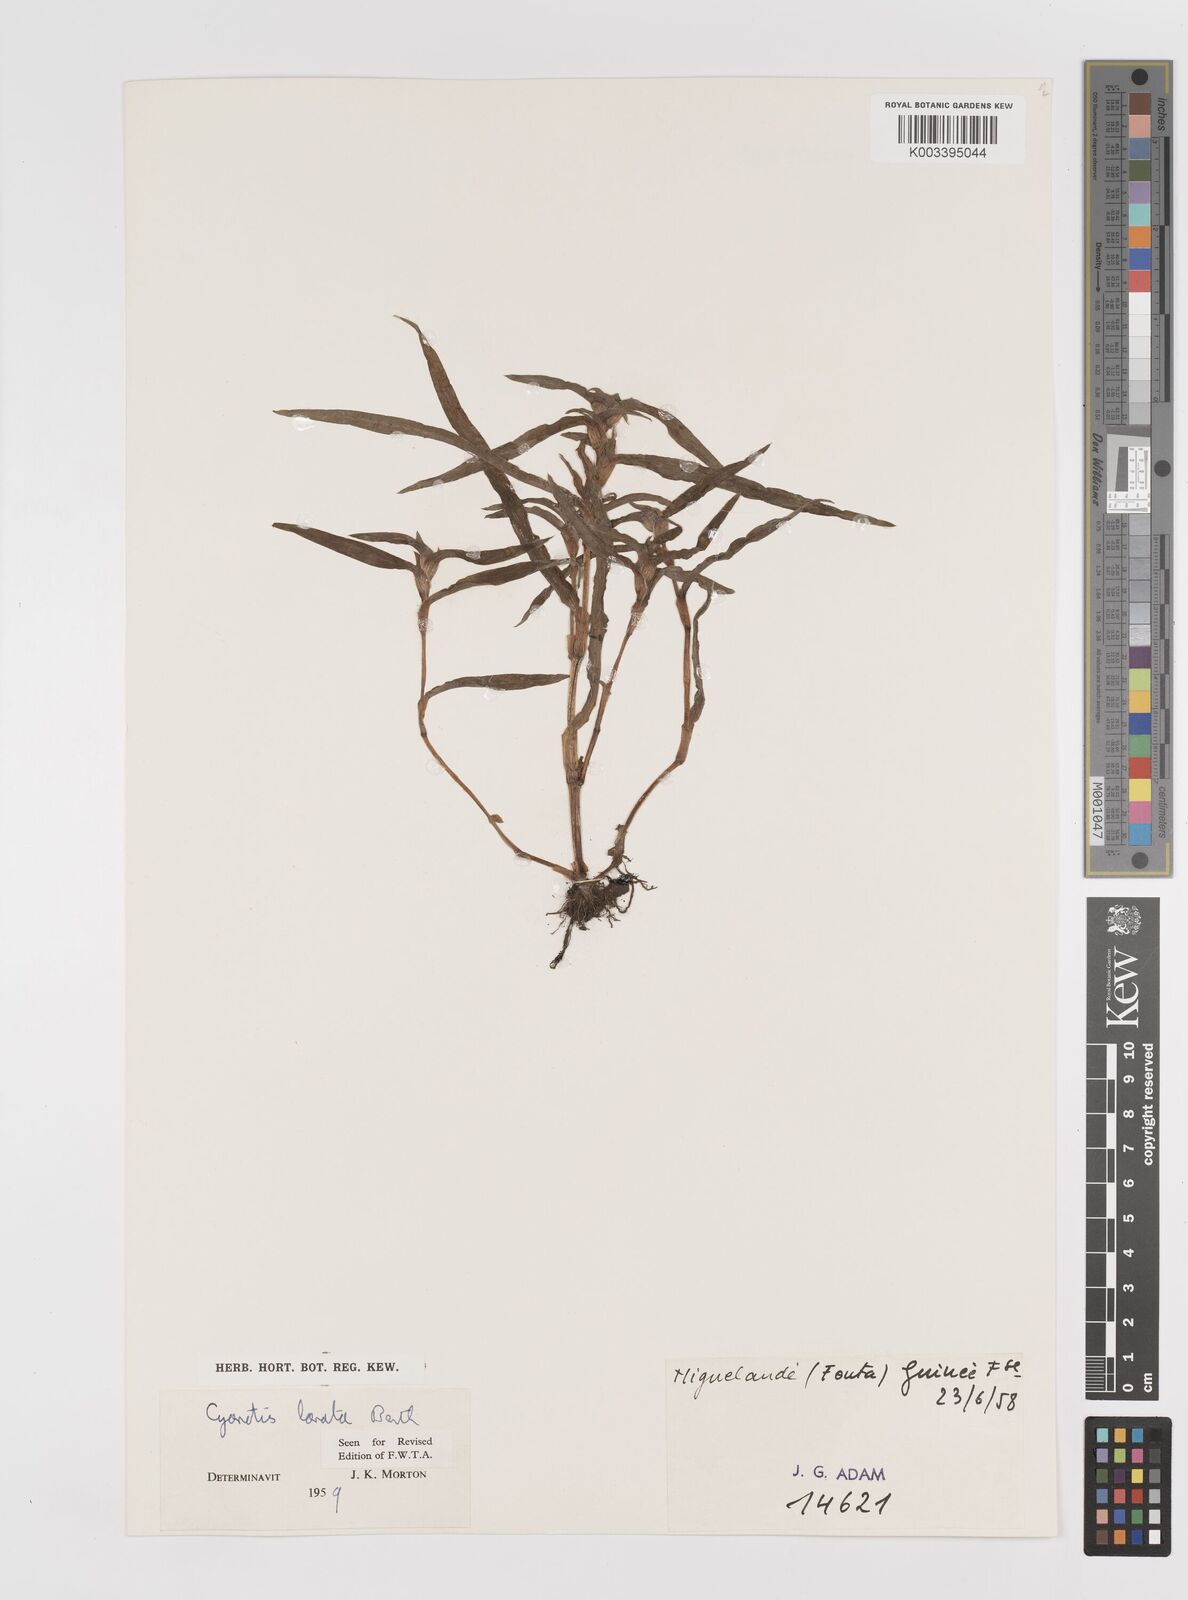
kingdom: Plantae
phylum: Tracheophyta
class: Liliopsida
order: Commelinales
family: Commelinaceae
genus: Cyanotis
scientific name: Cyanotis lanata
